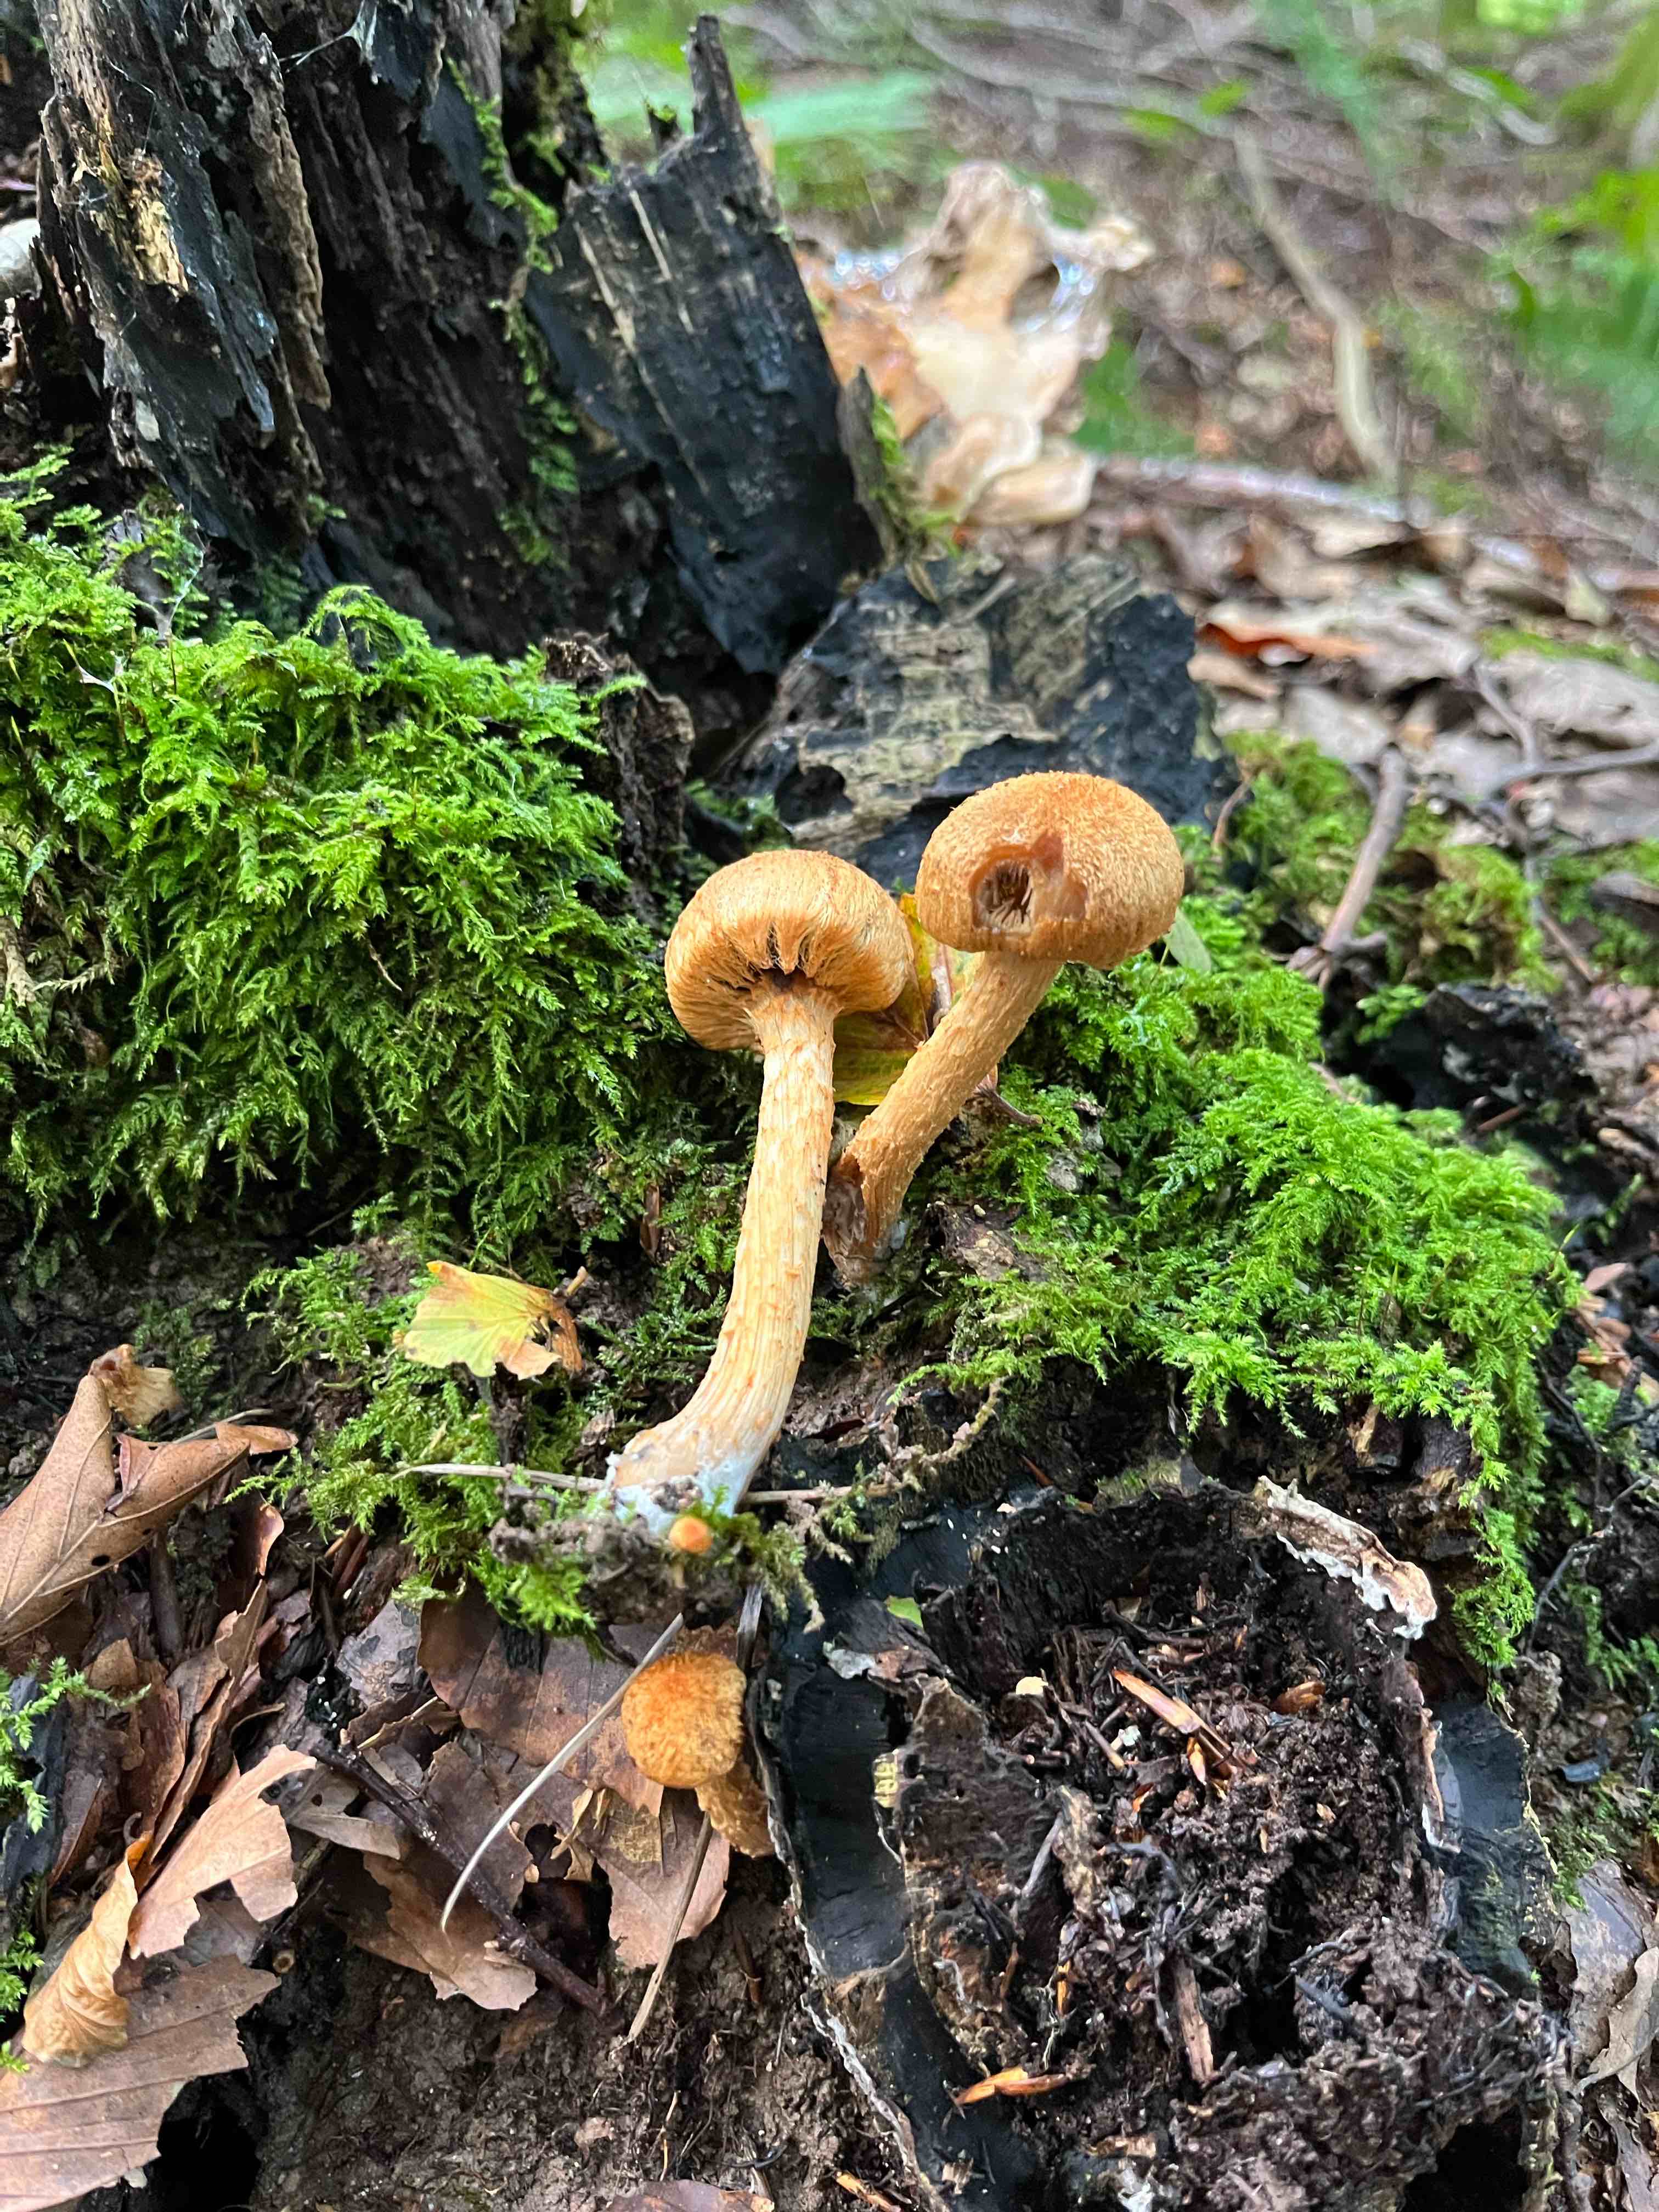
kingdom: Fungi
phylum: Basidiomycota
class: Agaricomycetes
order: Agaricales
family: Psathyrellaceae
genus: Lacrymaria
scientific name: Lacrymaria pyrotricha
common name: ildhåret mørkhat
